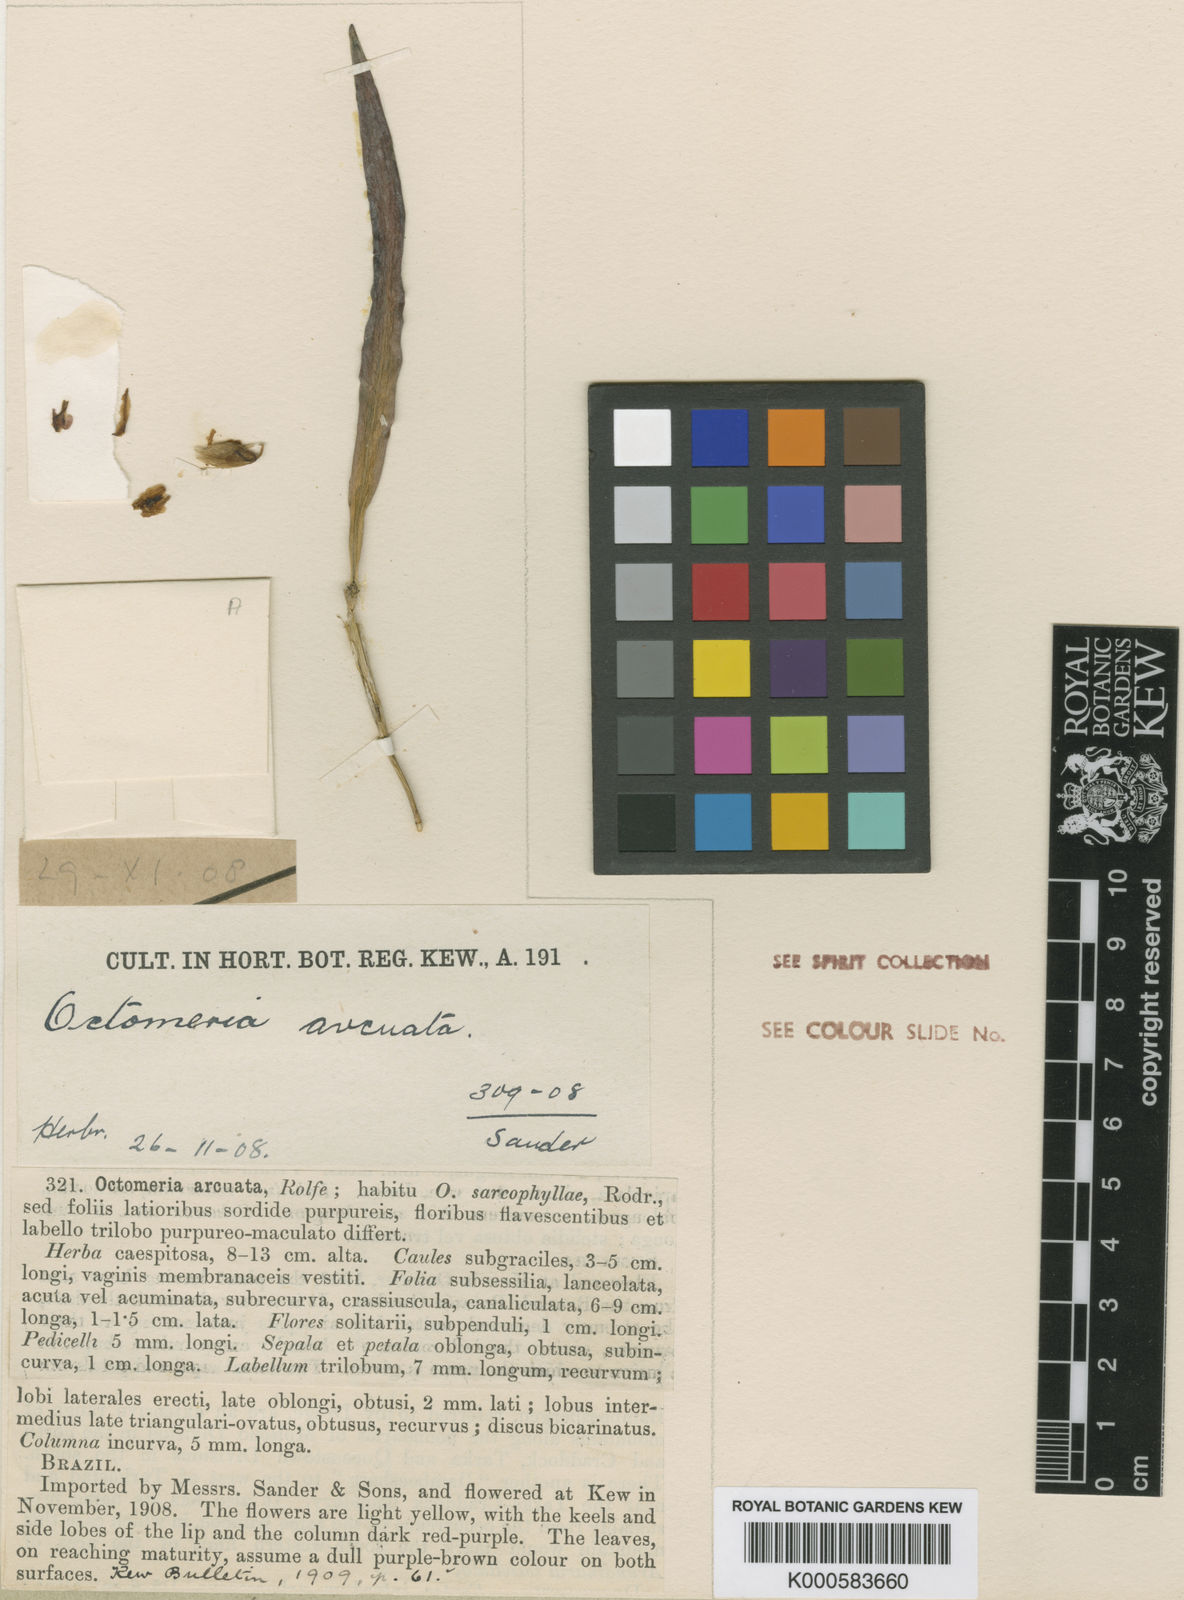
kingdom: Plantae
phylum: Tracheophyta
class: Liliopsida
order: Asparagales
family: Orchidaceae
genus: Octomeria
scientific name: Octomeria grandiflora
